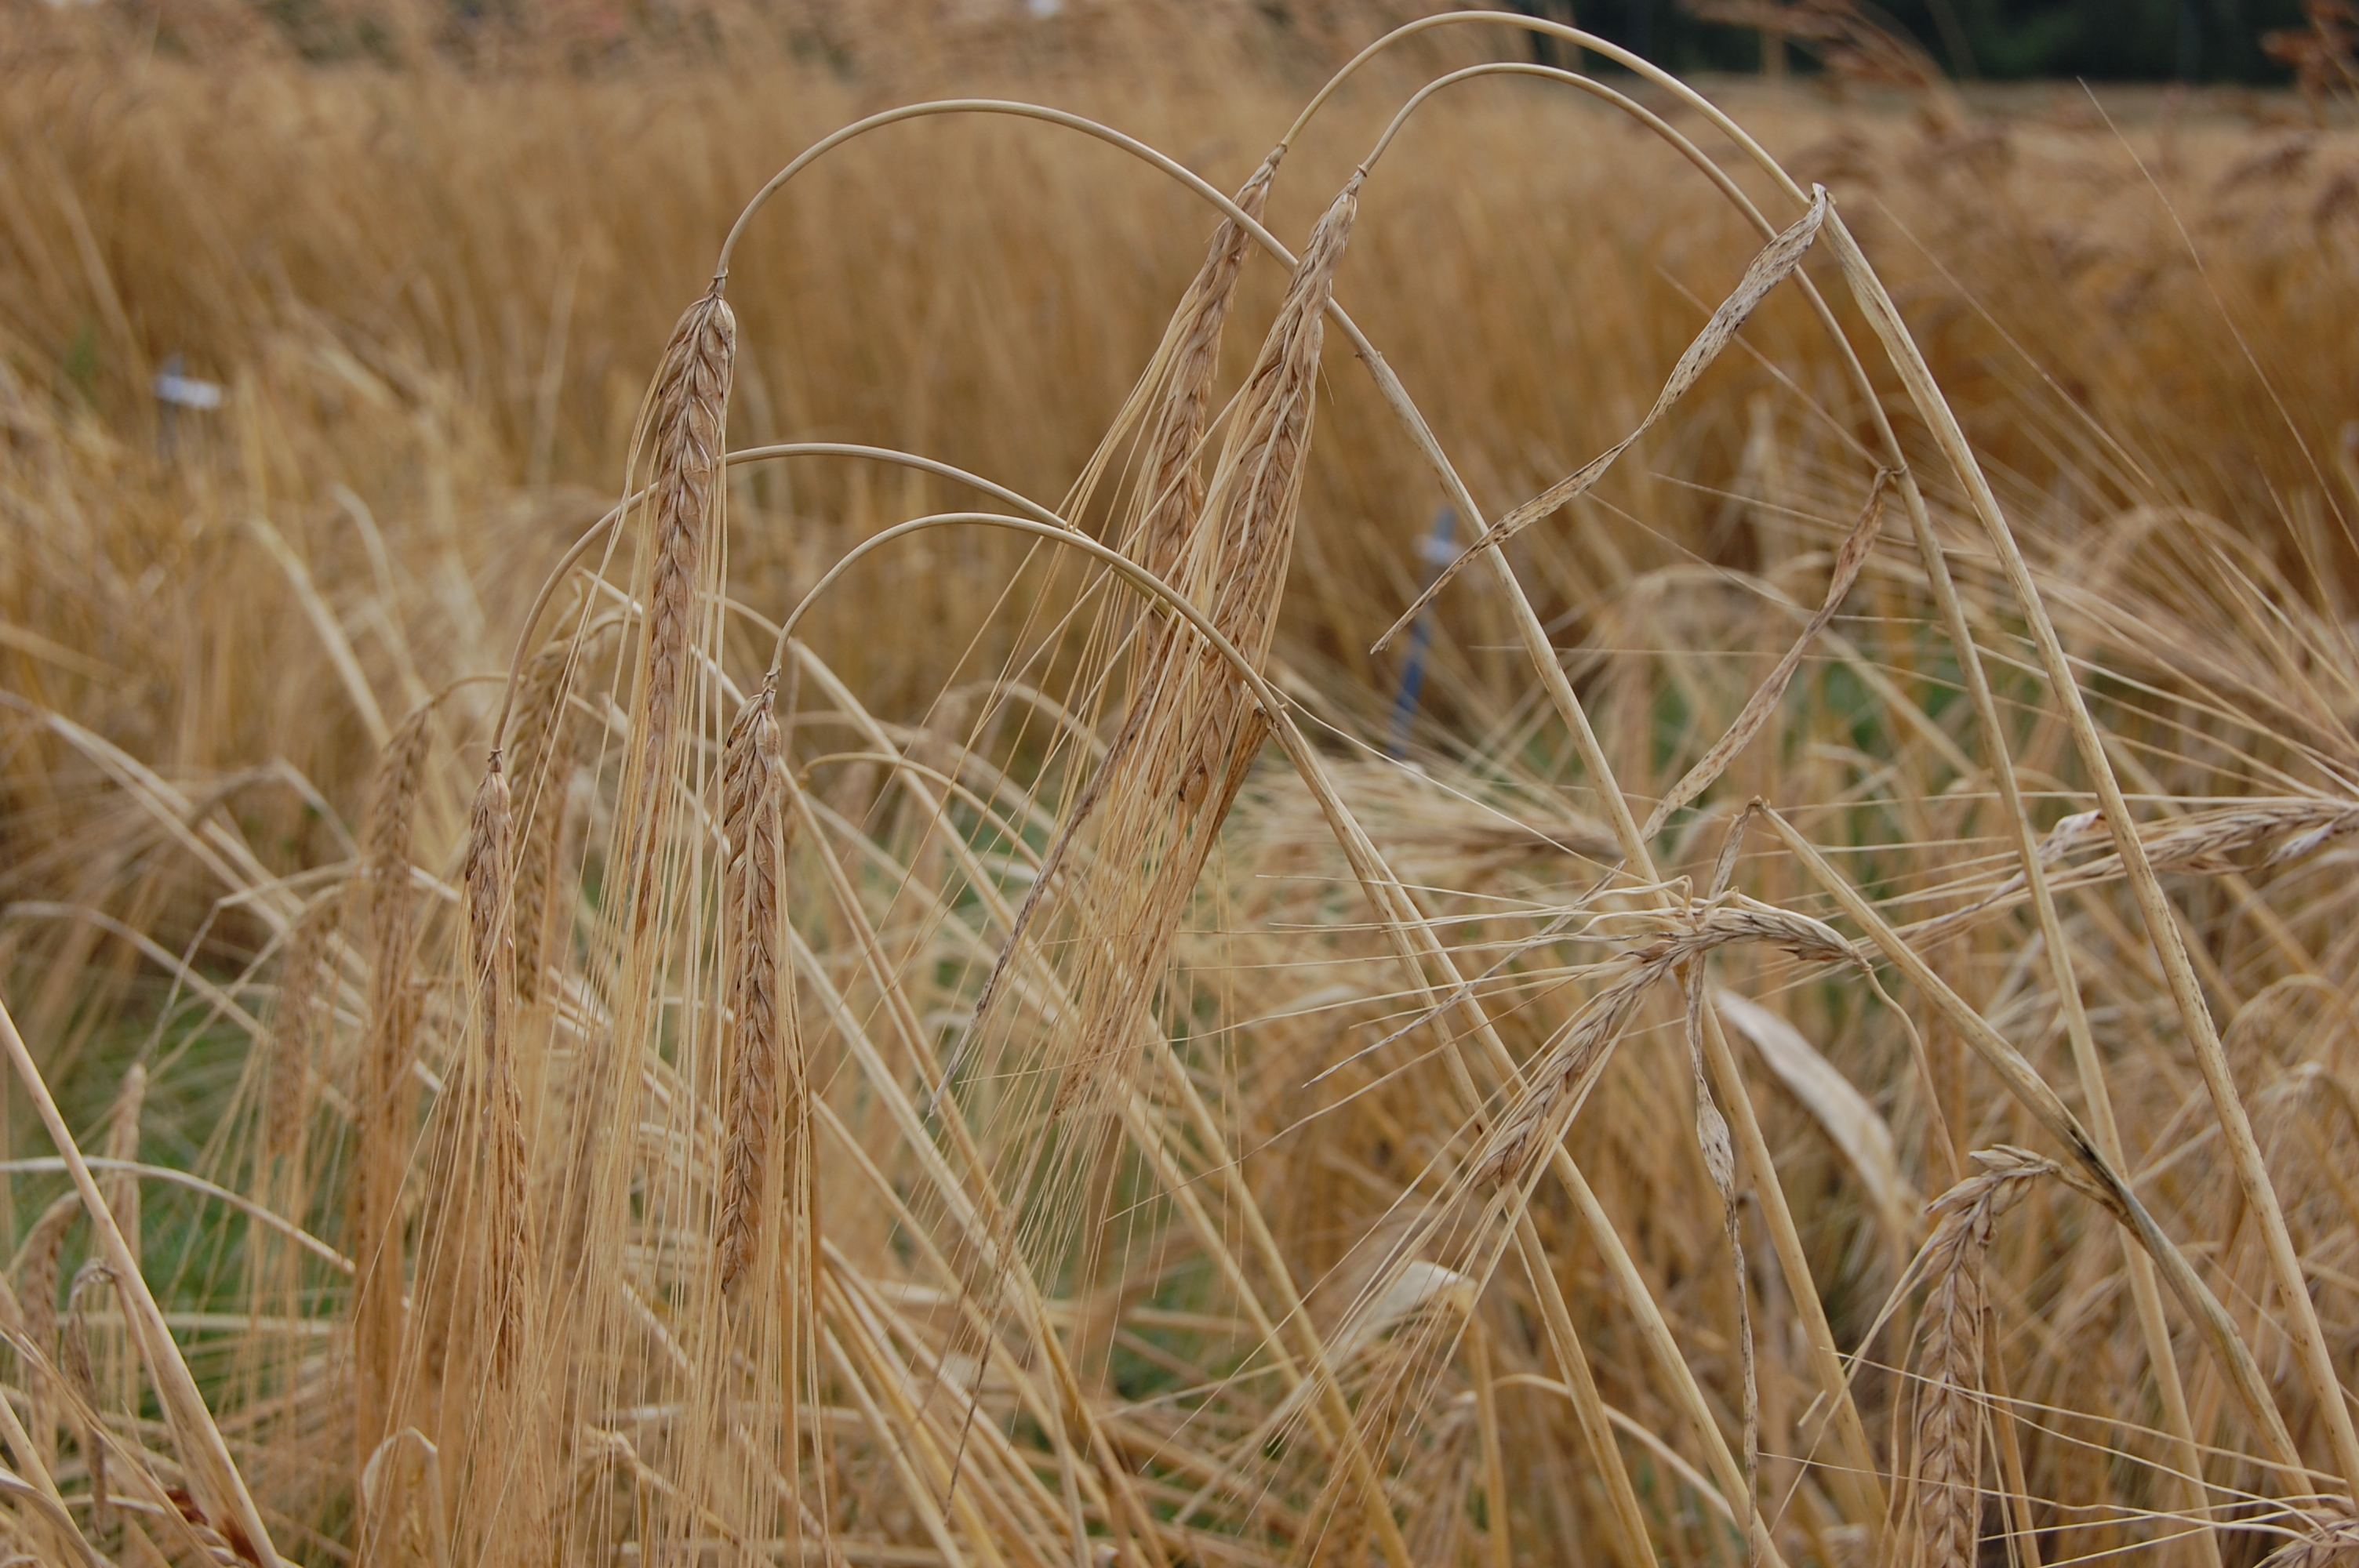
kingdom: Plantae
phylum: Tracheophyta
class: Liliopsida
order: Poales
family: Poaceae
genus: Hordeum
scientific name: Hordeum vulgare
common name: Common barley
